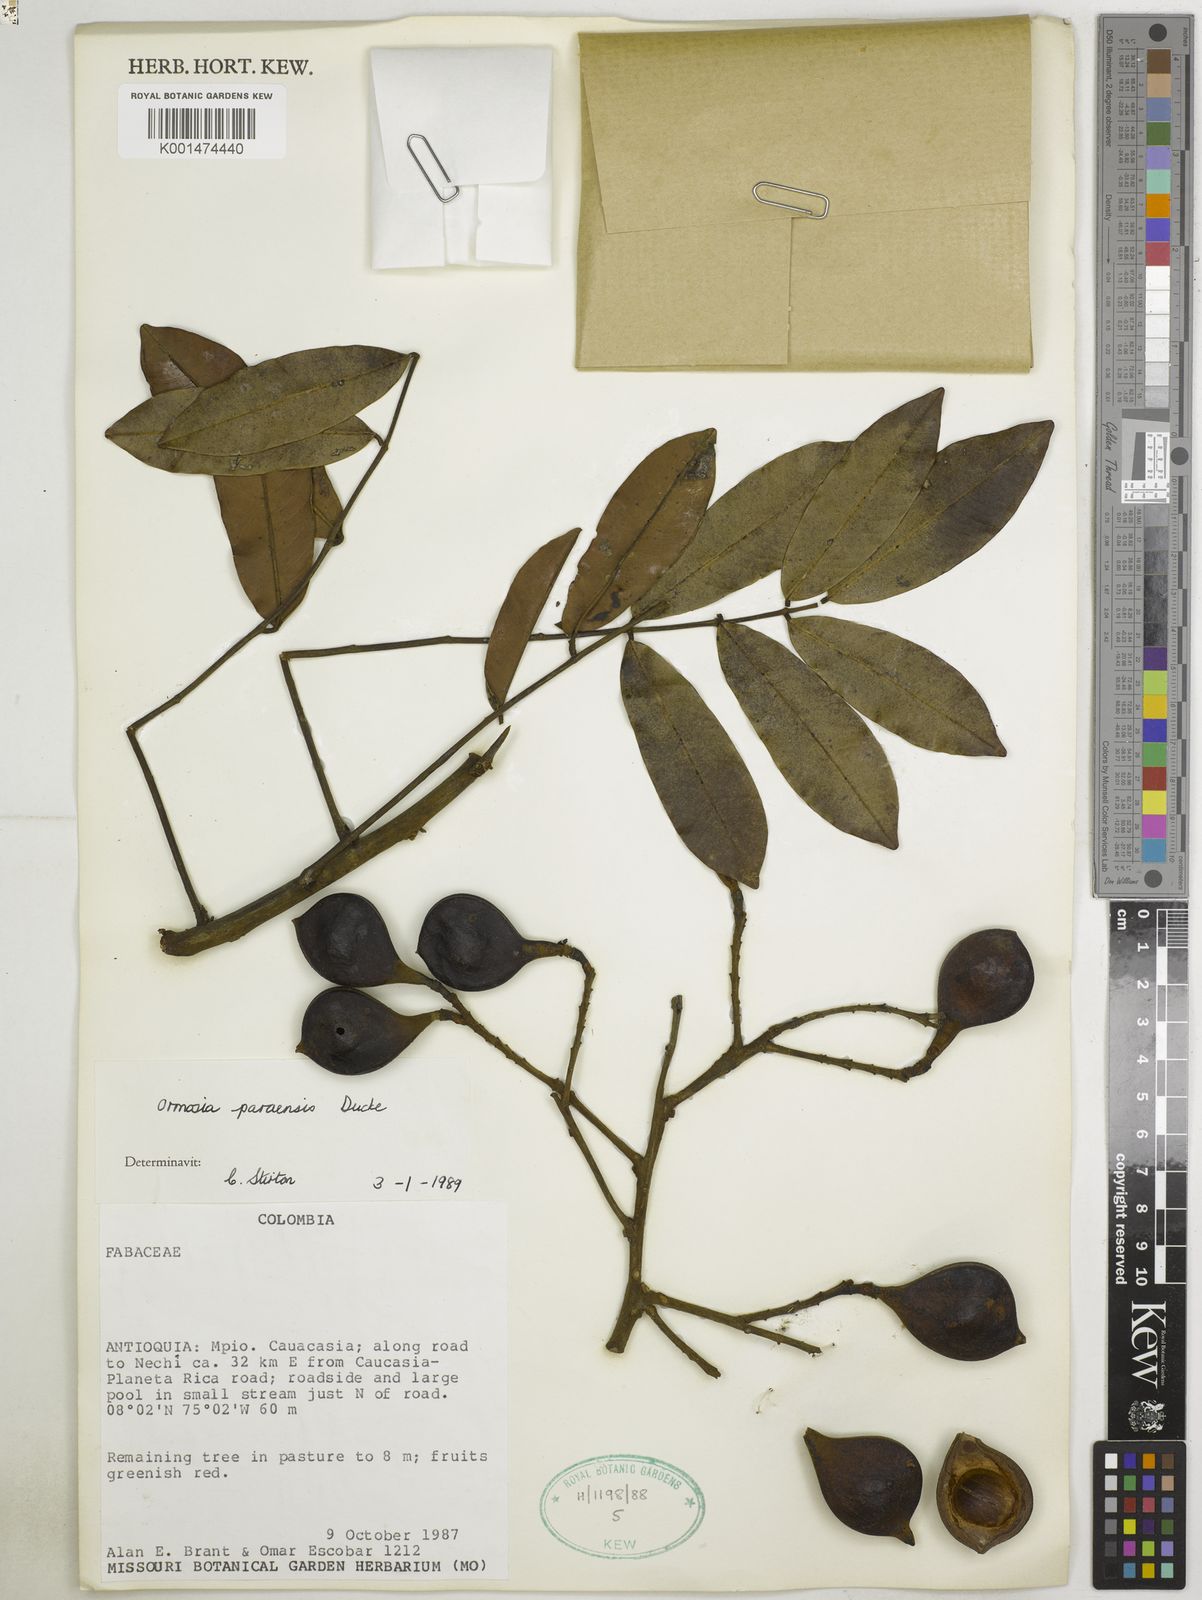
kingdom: Plantae
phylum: Tracheophyta
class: Magnoliopsida
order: Fabales
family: Fabaceae
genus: Ormosia
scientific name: Ormosia paraensis
